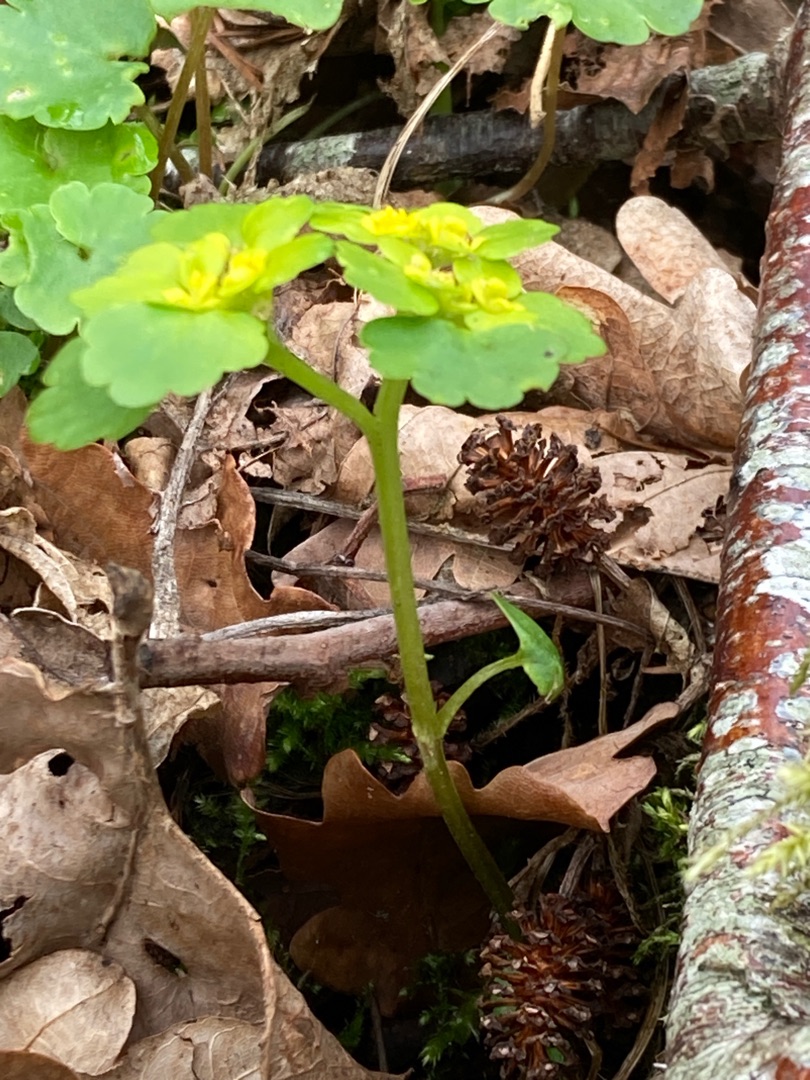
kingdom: Plantae
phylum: Tracheophyta
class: Magnoliopsida
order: Saxifragales
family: Saxifragaceae
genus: Chrysosplenium
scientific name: Chrysosplenium alternifolium
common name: Almindelig milturt
